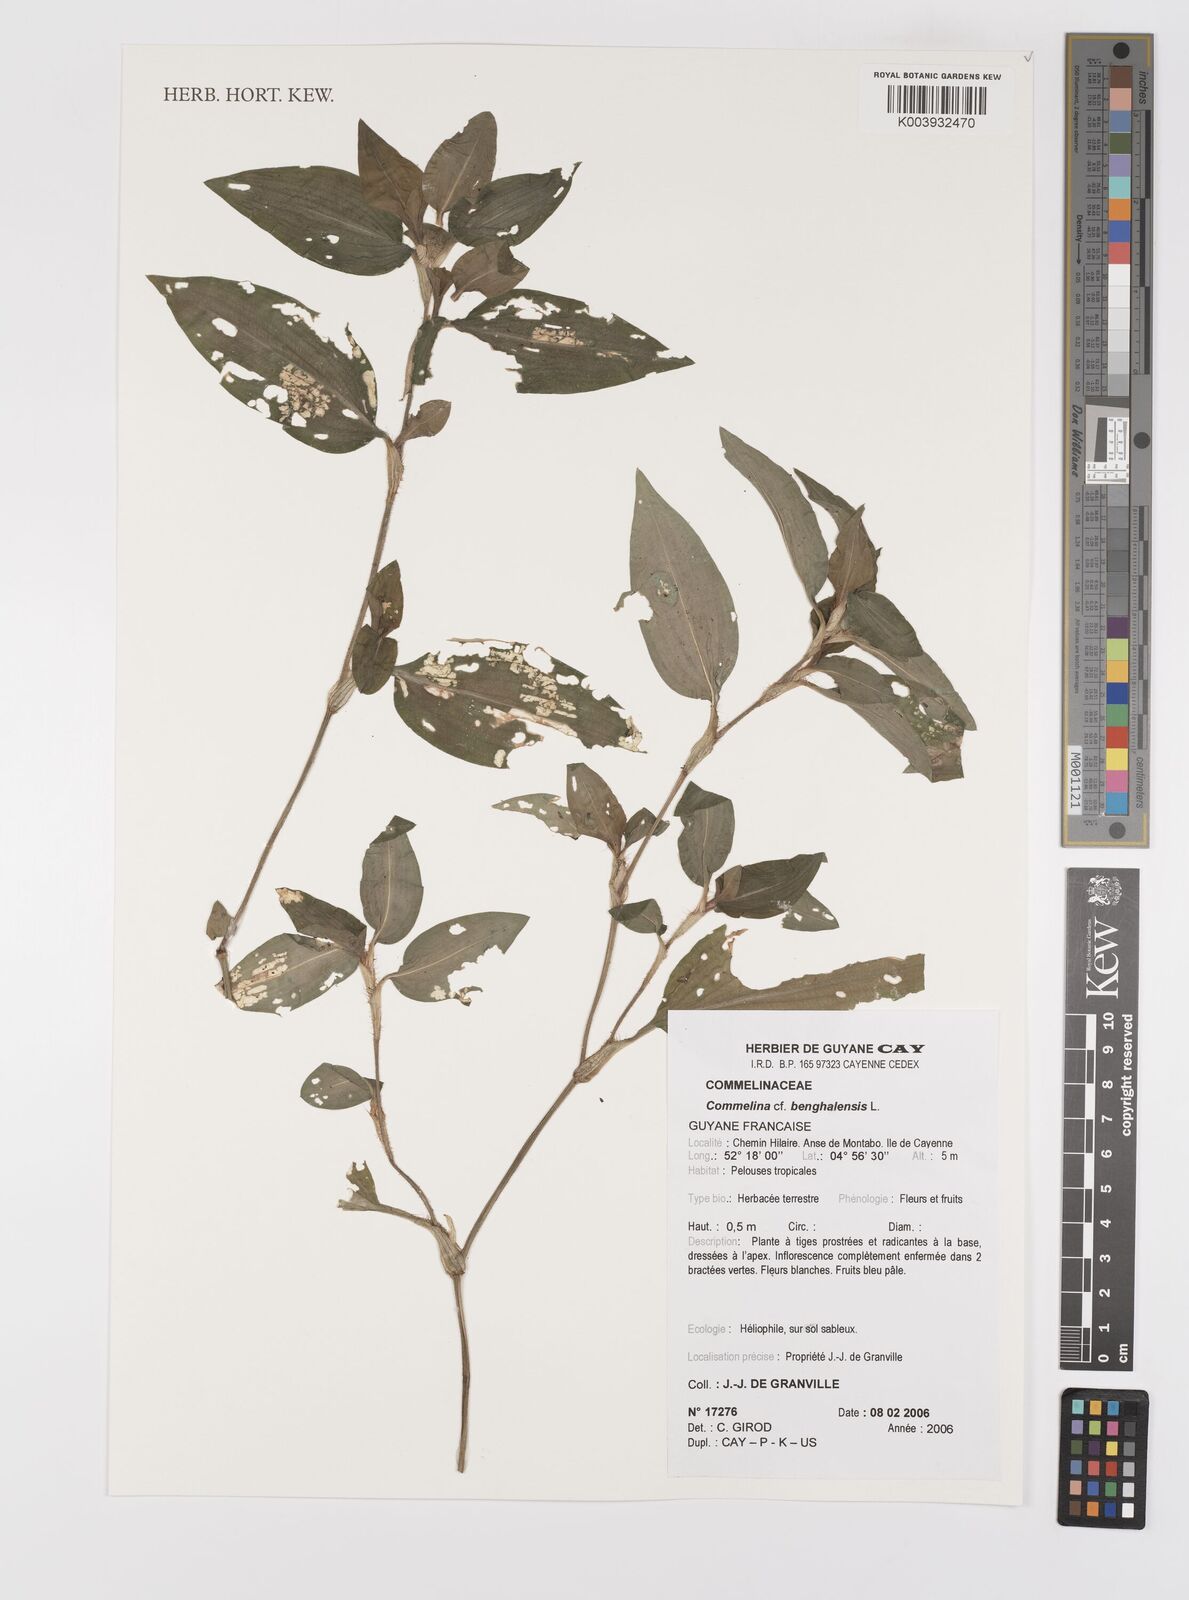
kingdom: Plantae
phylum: Tracheophyta
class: Liliopsida
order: Commelinales
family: Commelinaceae
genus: Commelina
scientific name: Commelina benghalensis
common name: Jio
